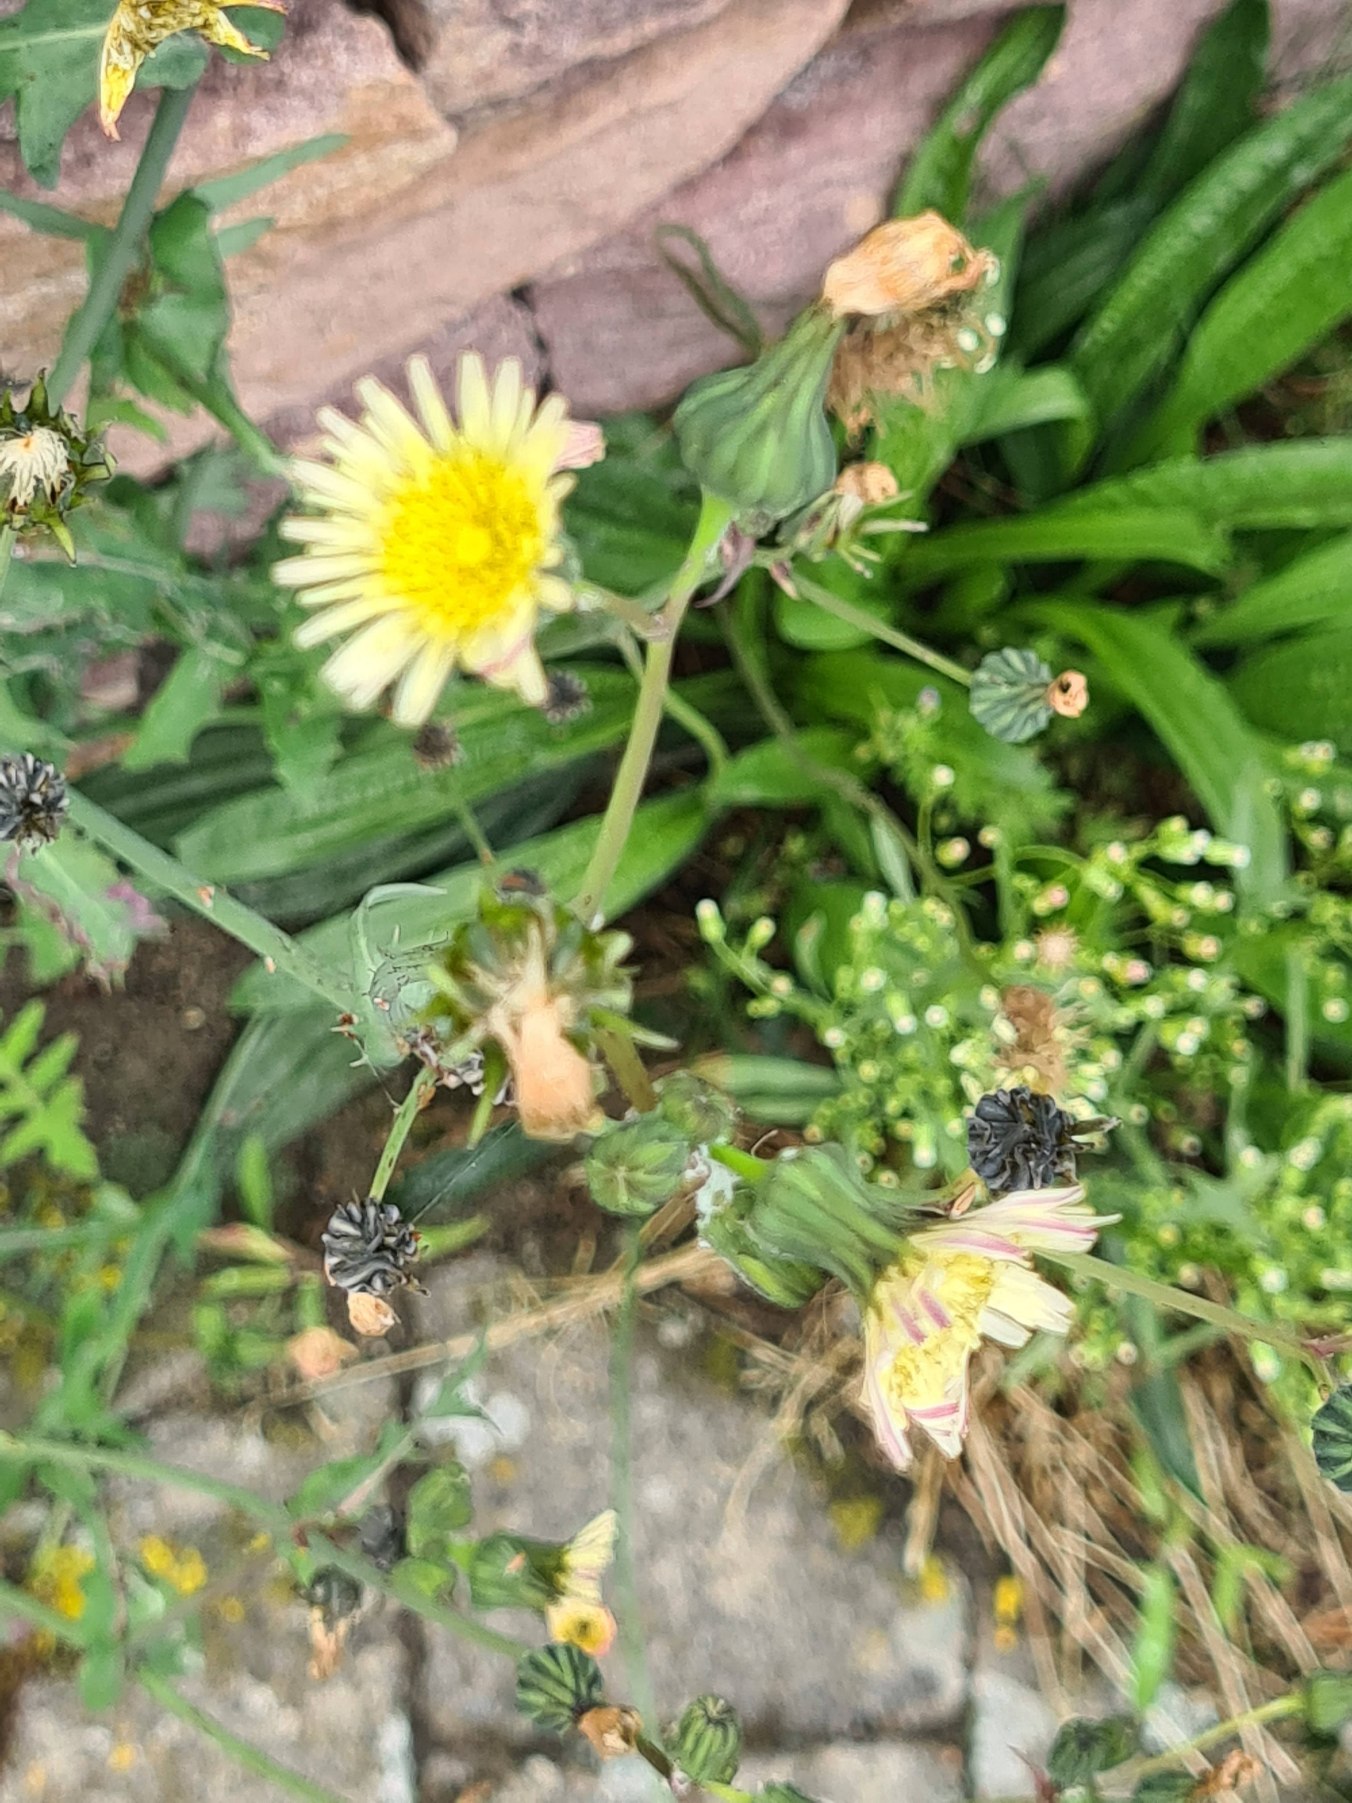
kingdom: Plantae
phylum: Tracheophyta
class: Magnoliopsida
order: Asterales
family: Asteraceae
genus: Sonchus
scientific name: Sonchus oleraceus
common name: Almindelig svinemælk
